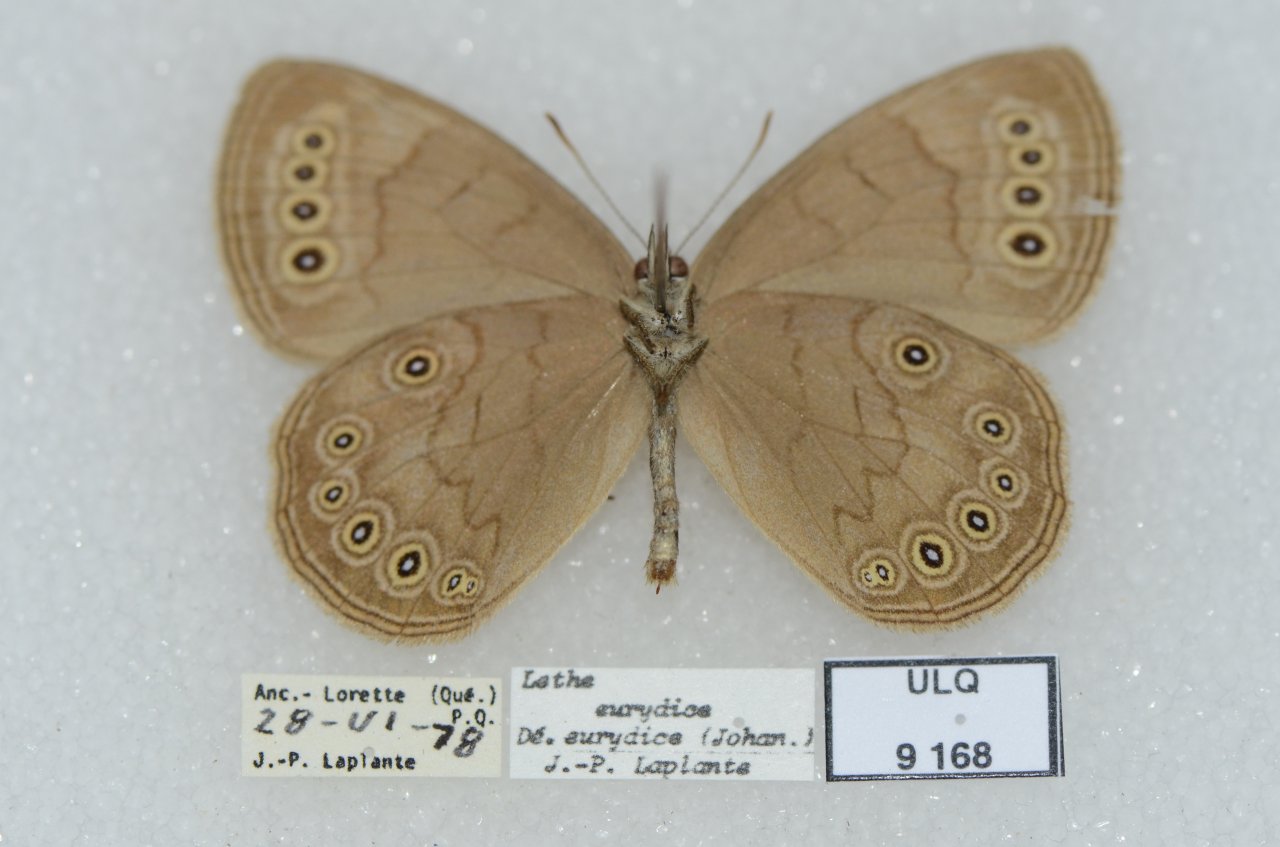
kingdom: Animalia
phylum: Arthropoda
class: Insecta
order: Lepidoptera
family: Nymphalidae
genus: Lethe
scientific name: Lethe eurydice
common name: Eyed Brown
